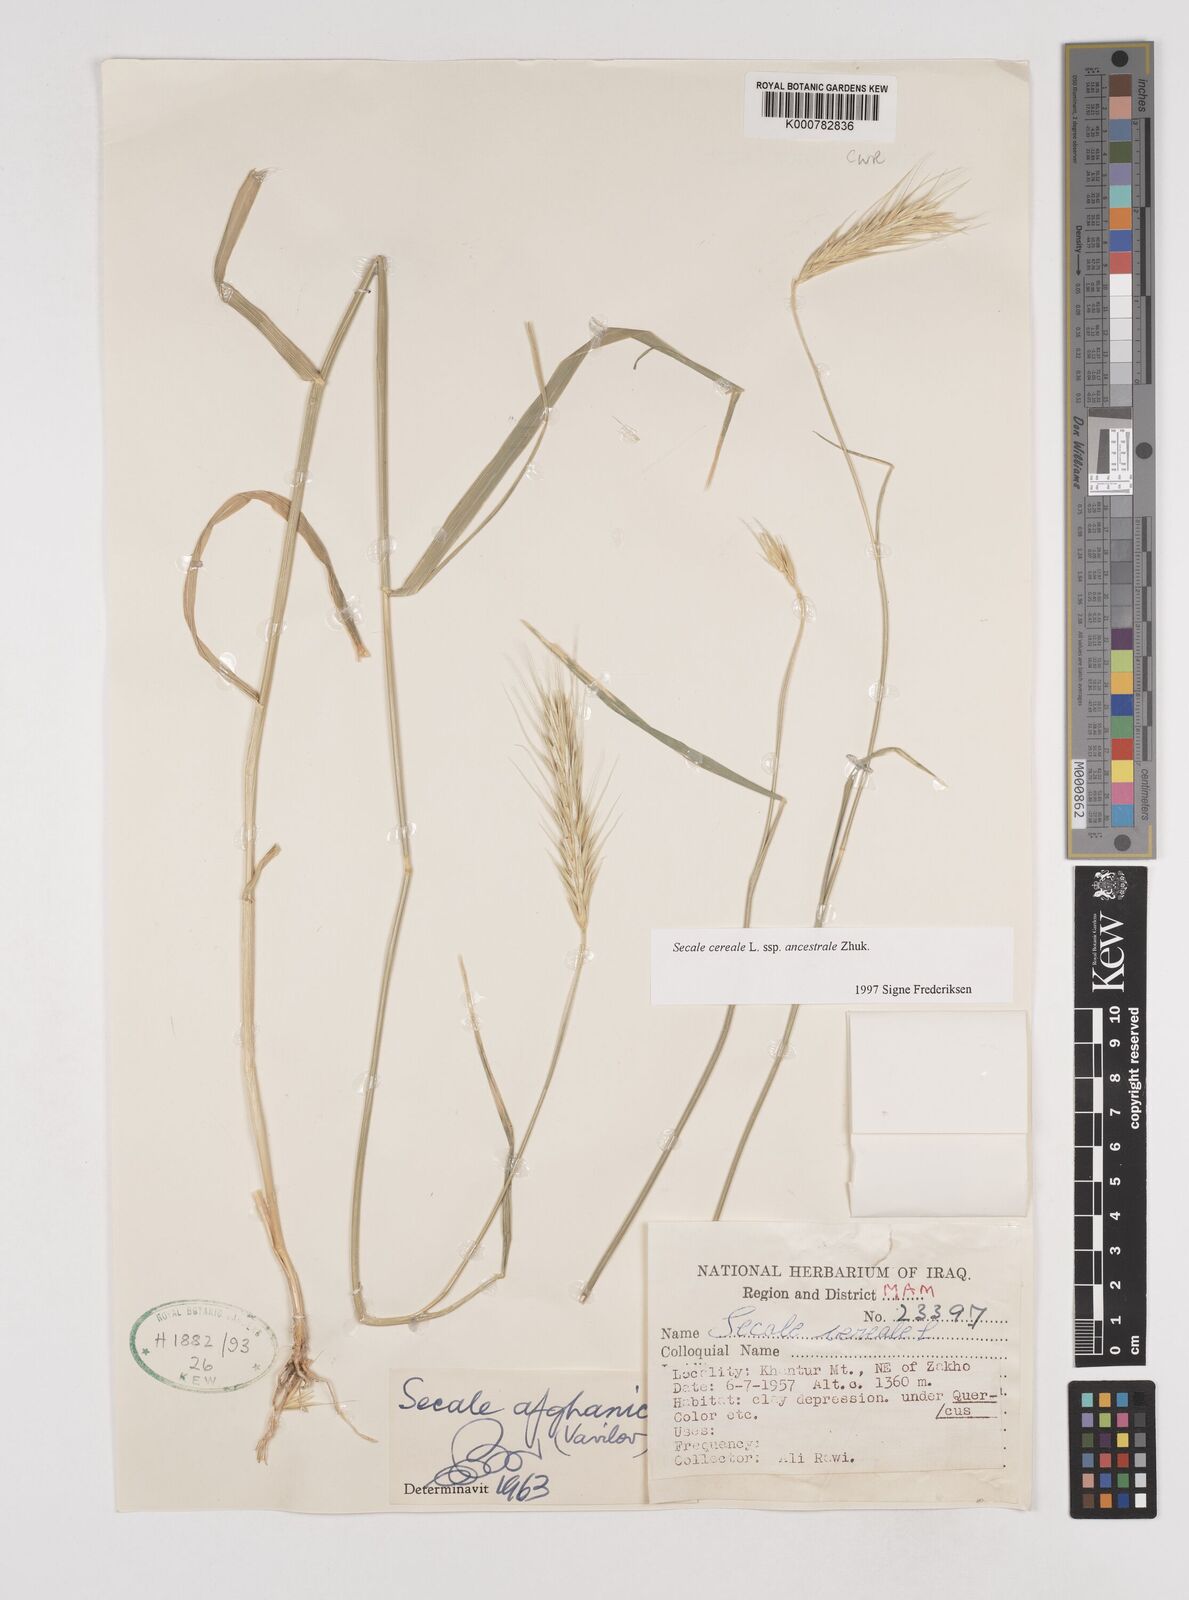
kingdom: Plantae
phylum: Tracheophyta
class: Liliopsida
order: Poales
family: Poaceae
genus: Secale
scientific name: Secale cereale
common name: Rye
